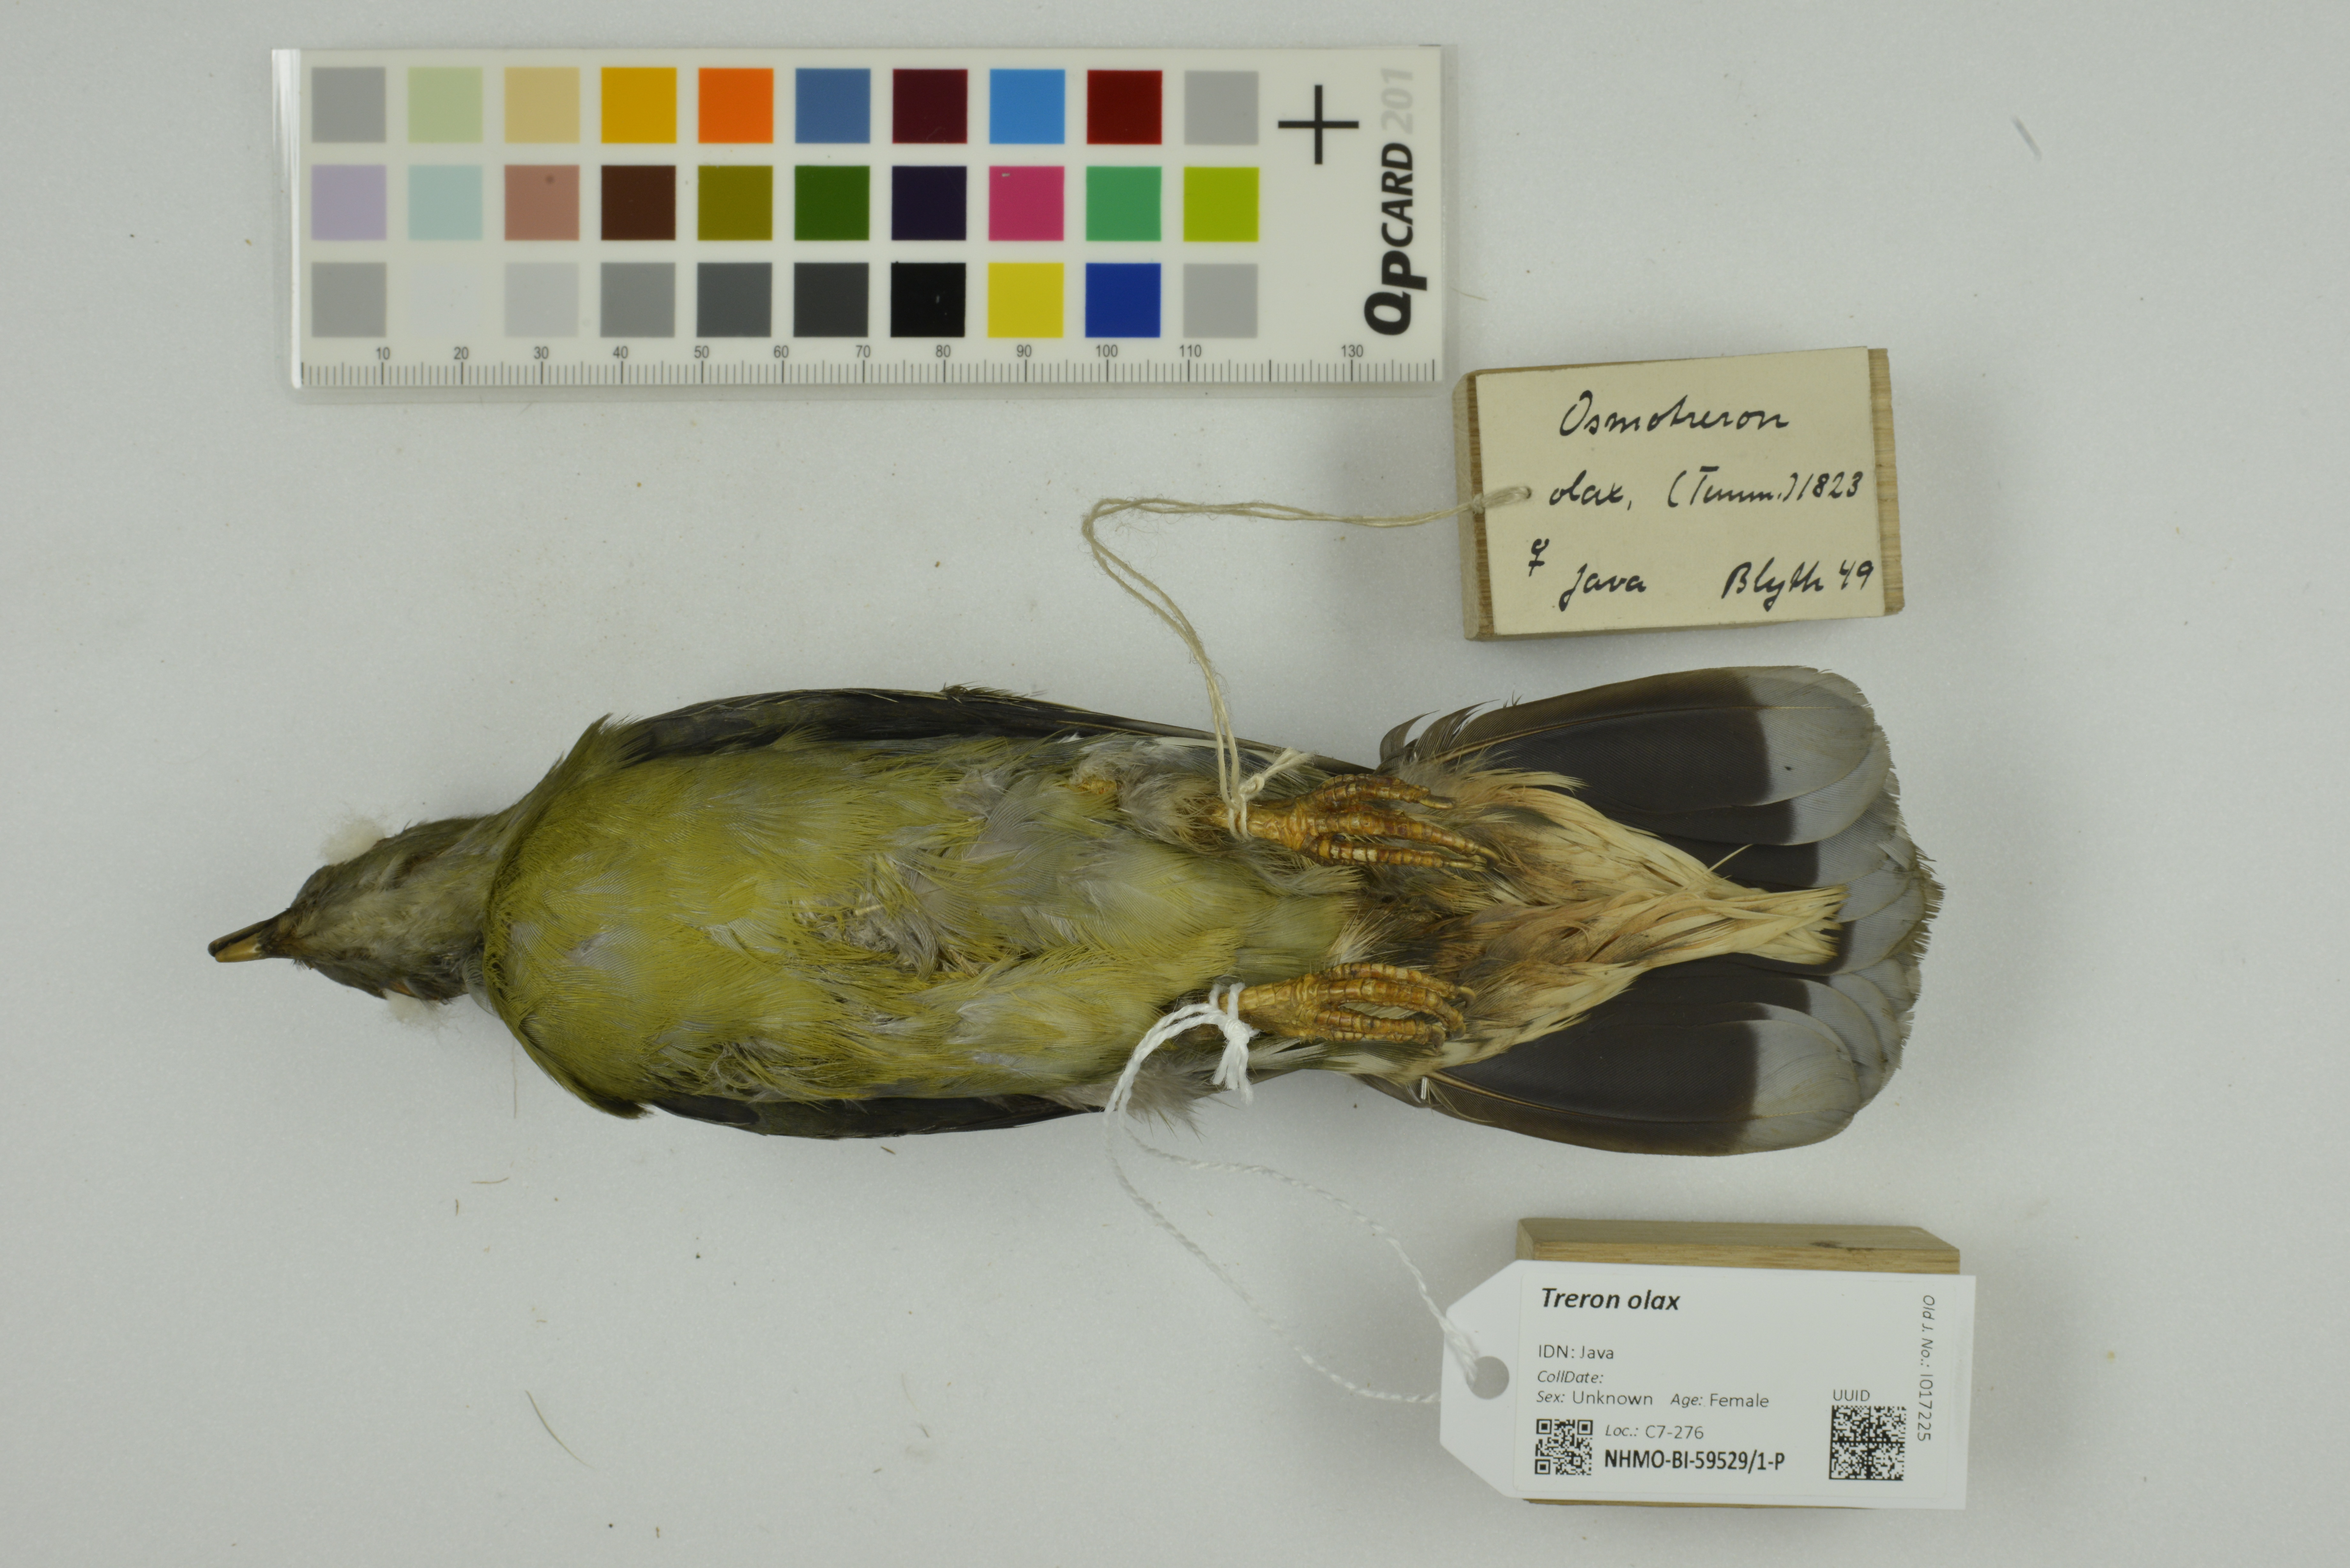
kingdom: Animalia
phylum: Chordata
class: Aves
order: Columbiformes
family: Columbidae
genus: Treron
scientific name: Treron olax
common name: Little green pigeon
